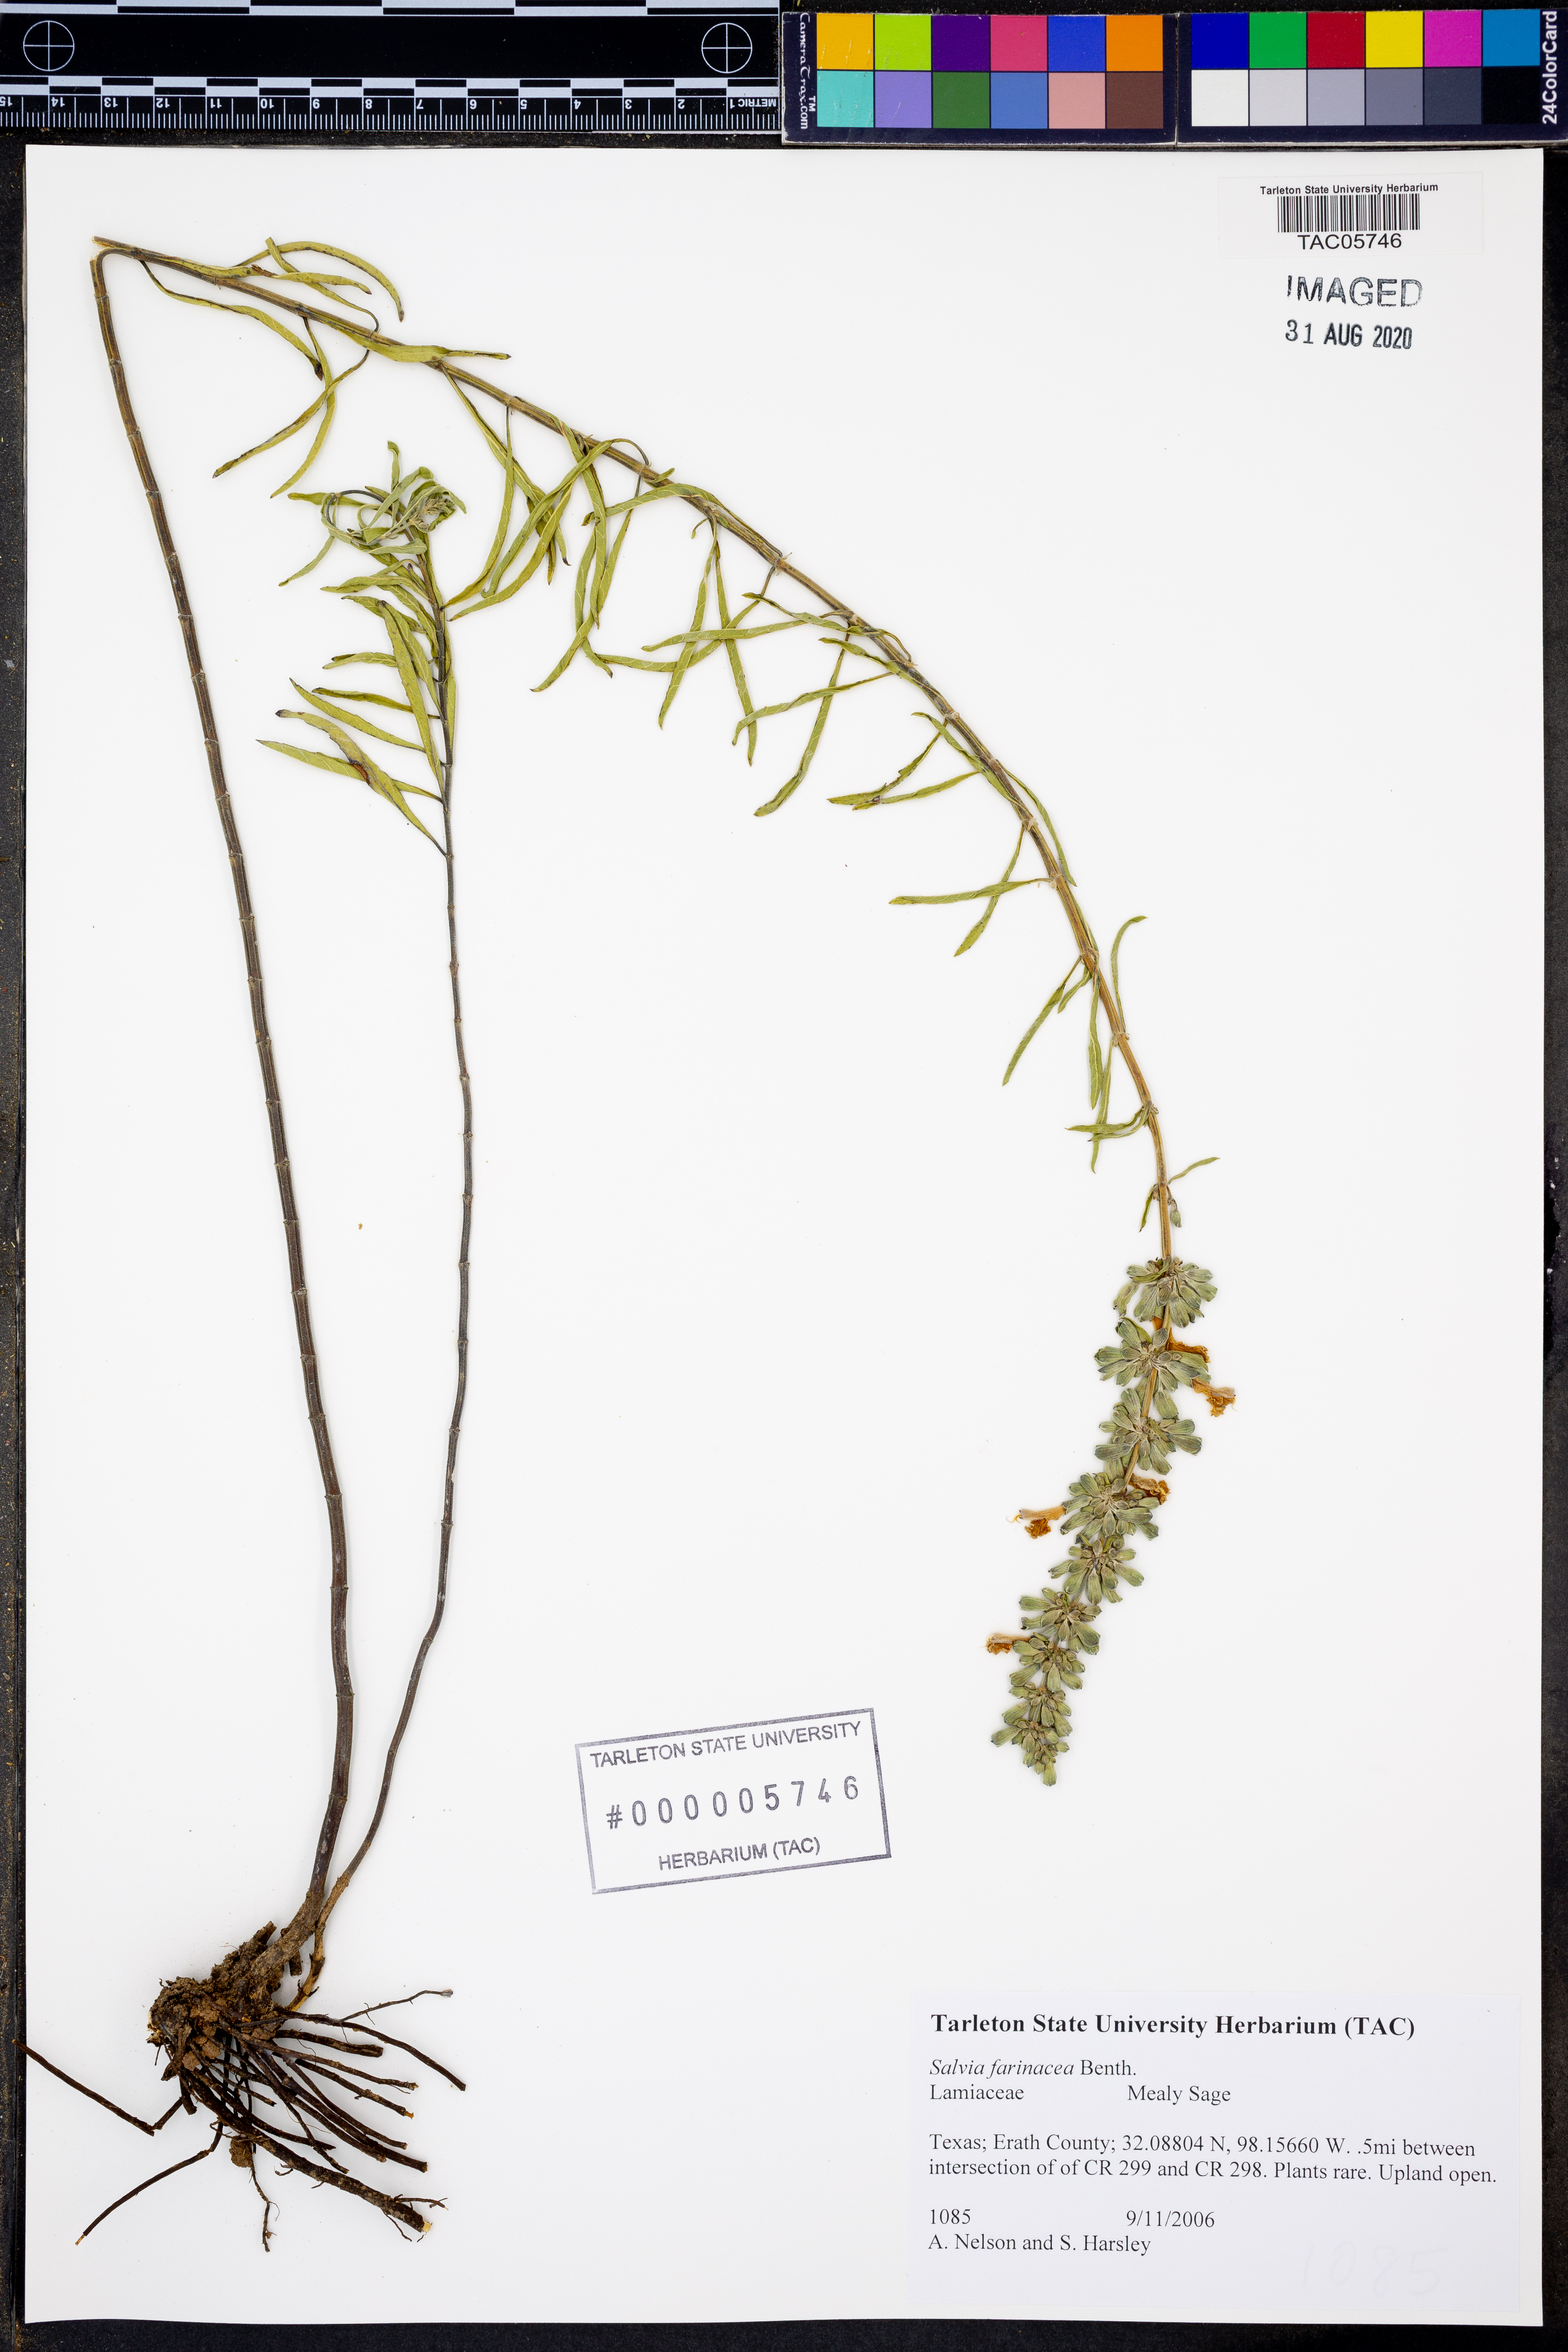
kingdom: Plantae
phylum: Tracheophyta
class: Magnoliopsida
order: Lamiales
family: Lamiaceae
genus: Salvia
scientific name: Salvia farinacea
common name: Mealy sage
